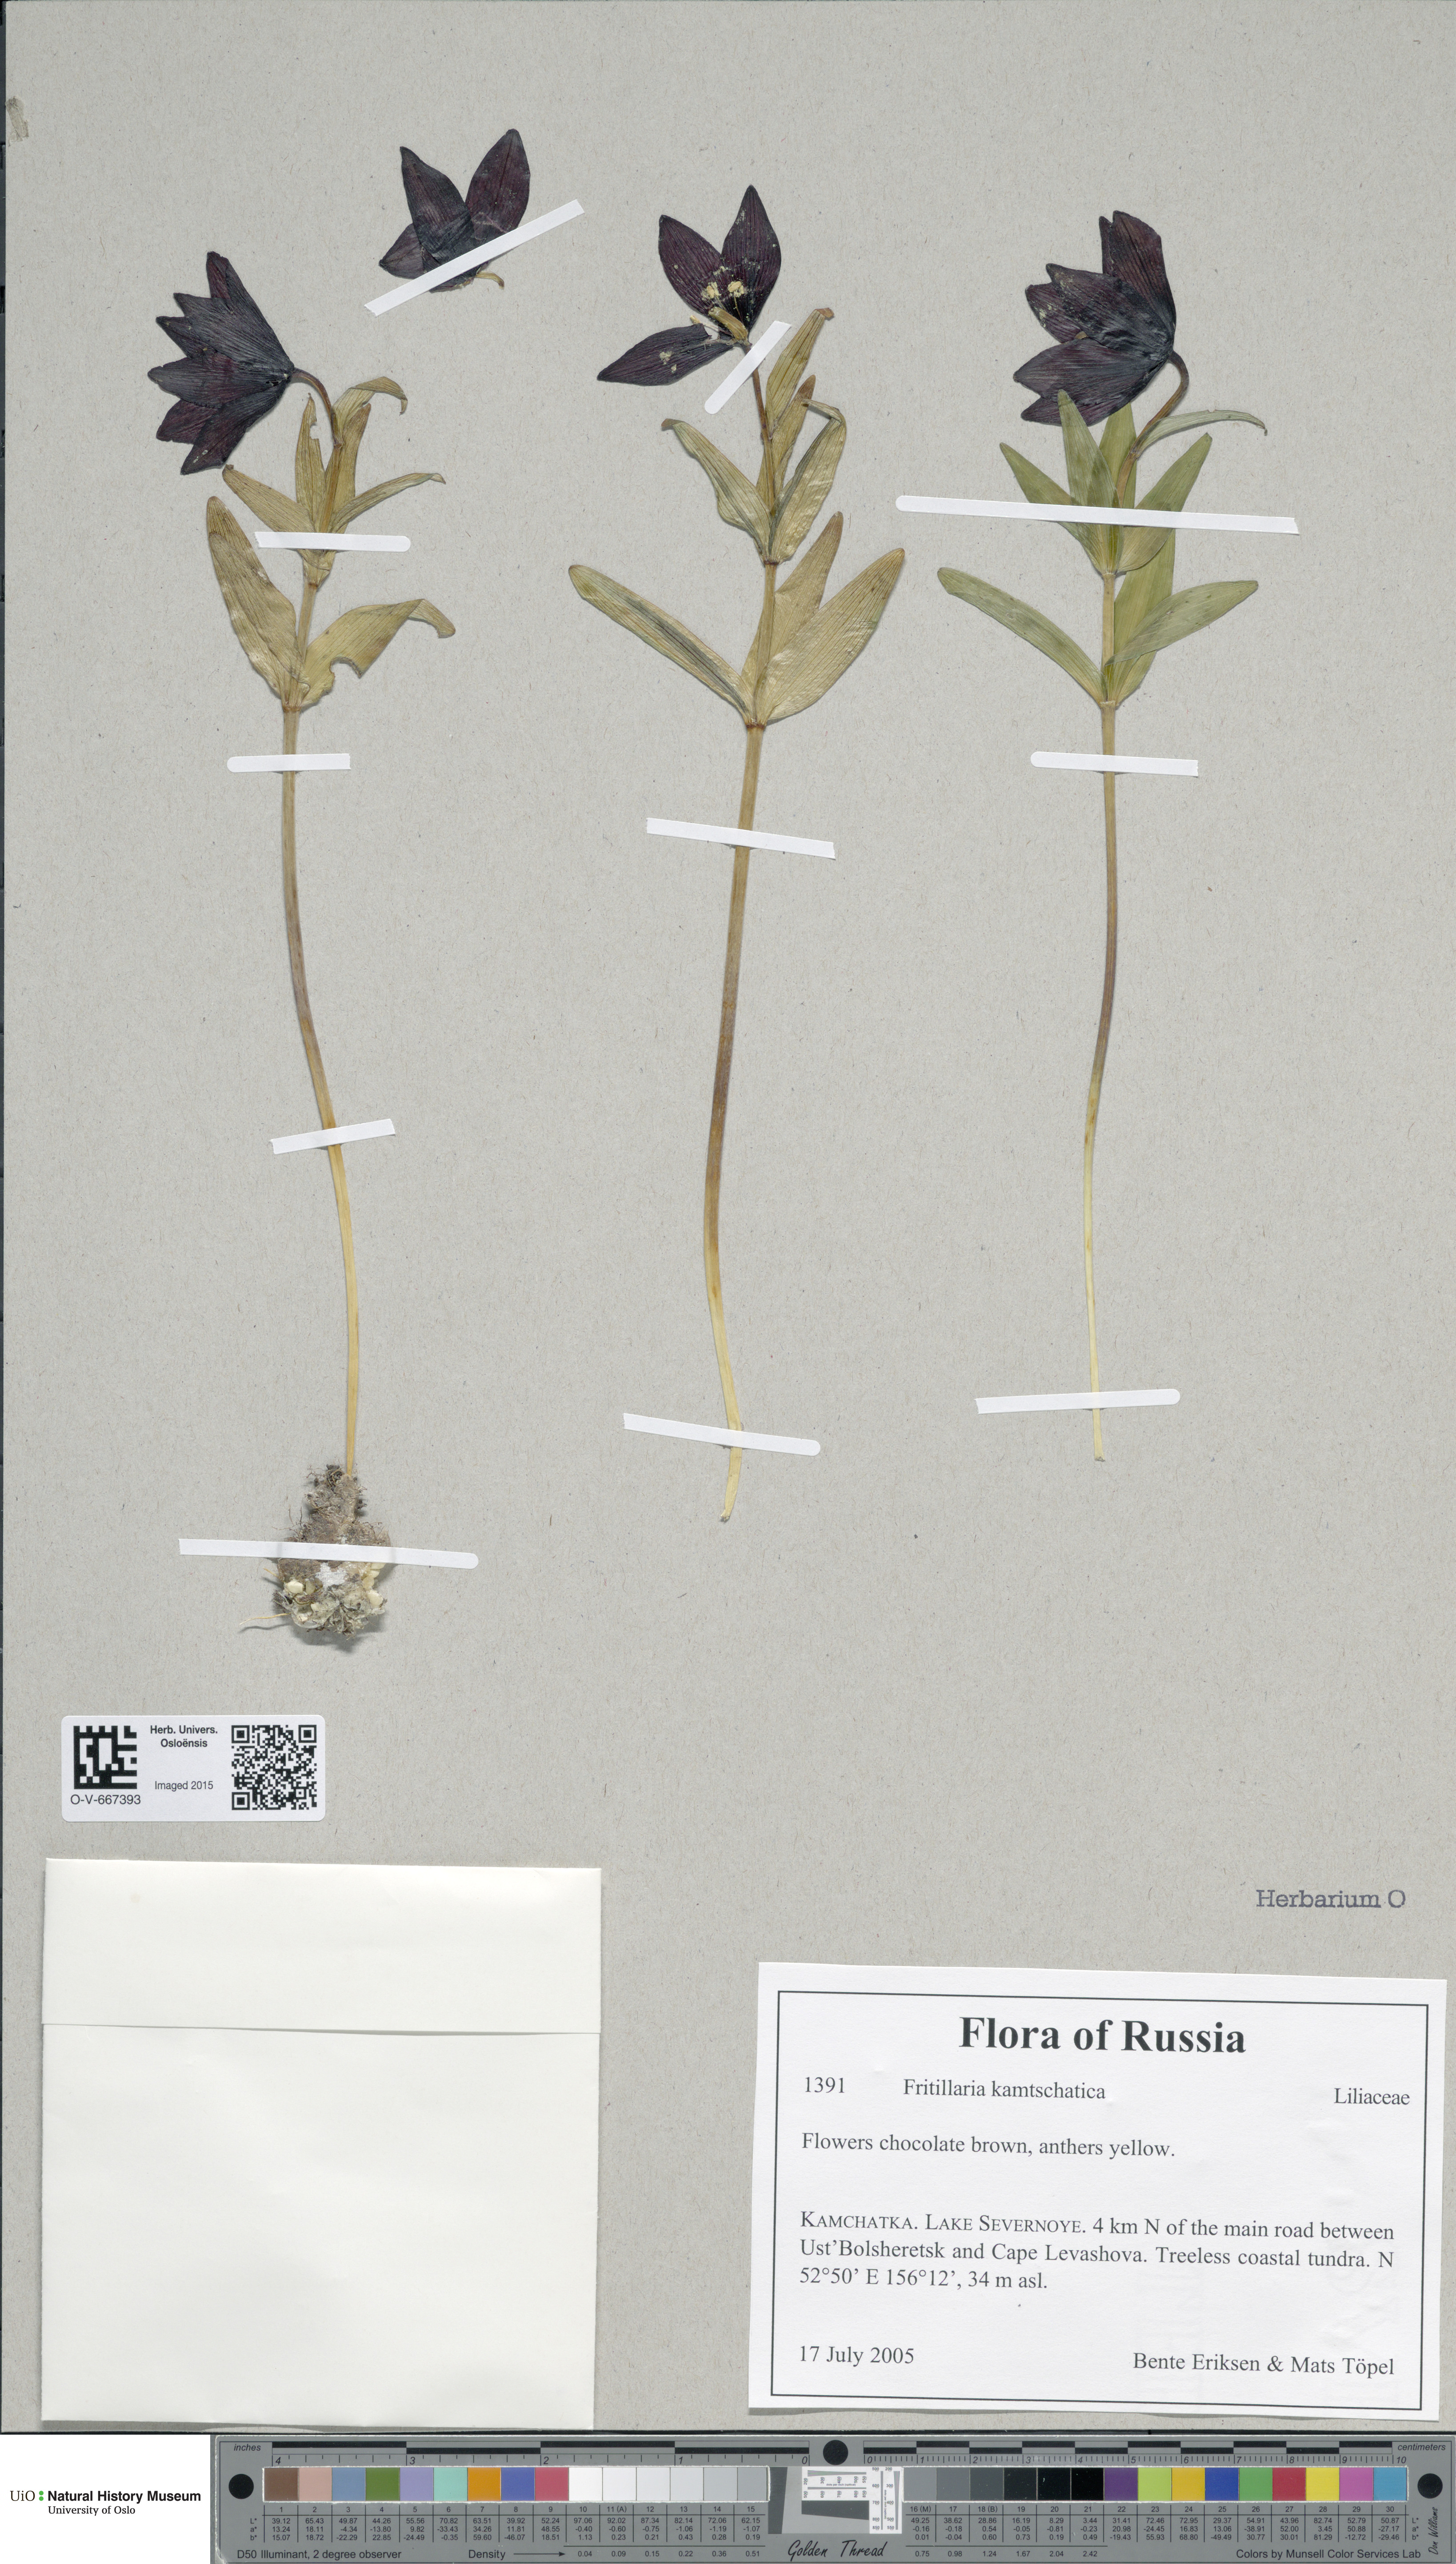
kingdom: Plantae
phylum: Tracheophyta
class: Liliopsida
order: Liliales
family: Liliaceae
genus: Fritillaria
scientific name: Fritillaria
